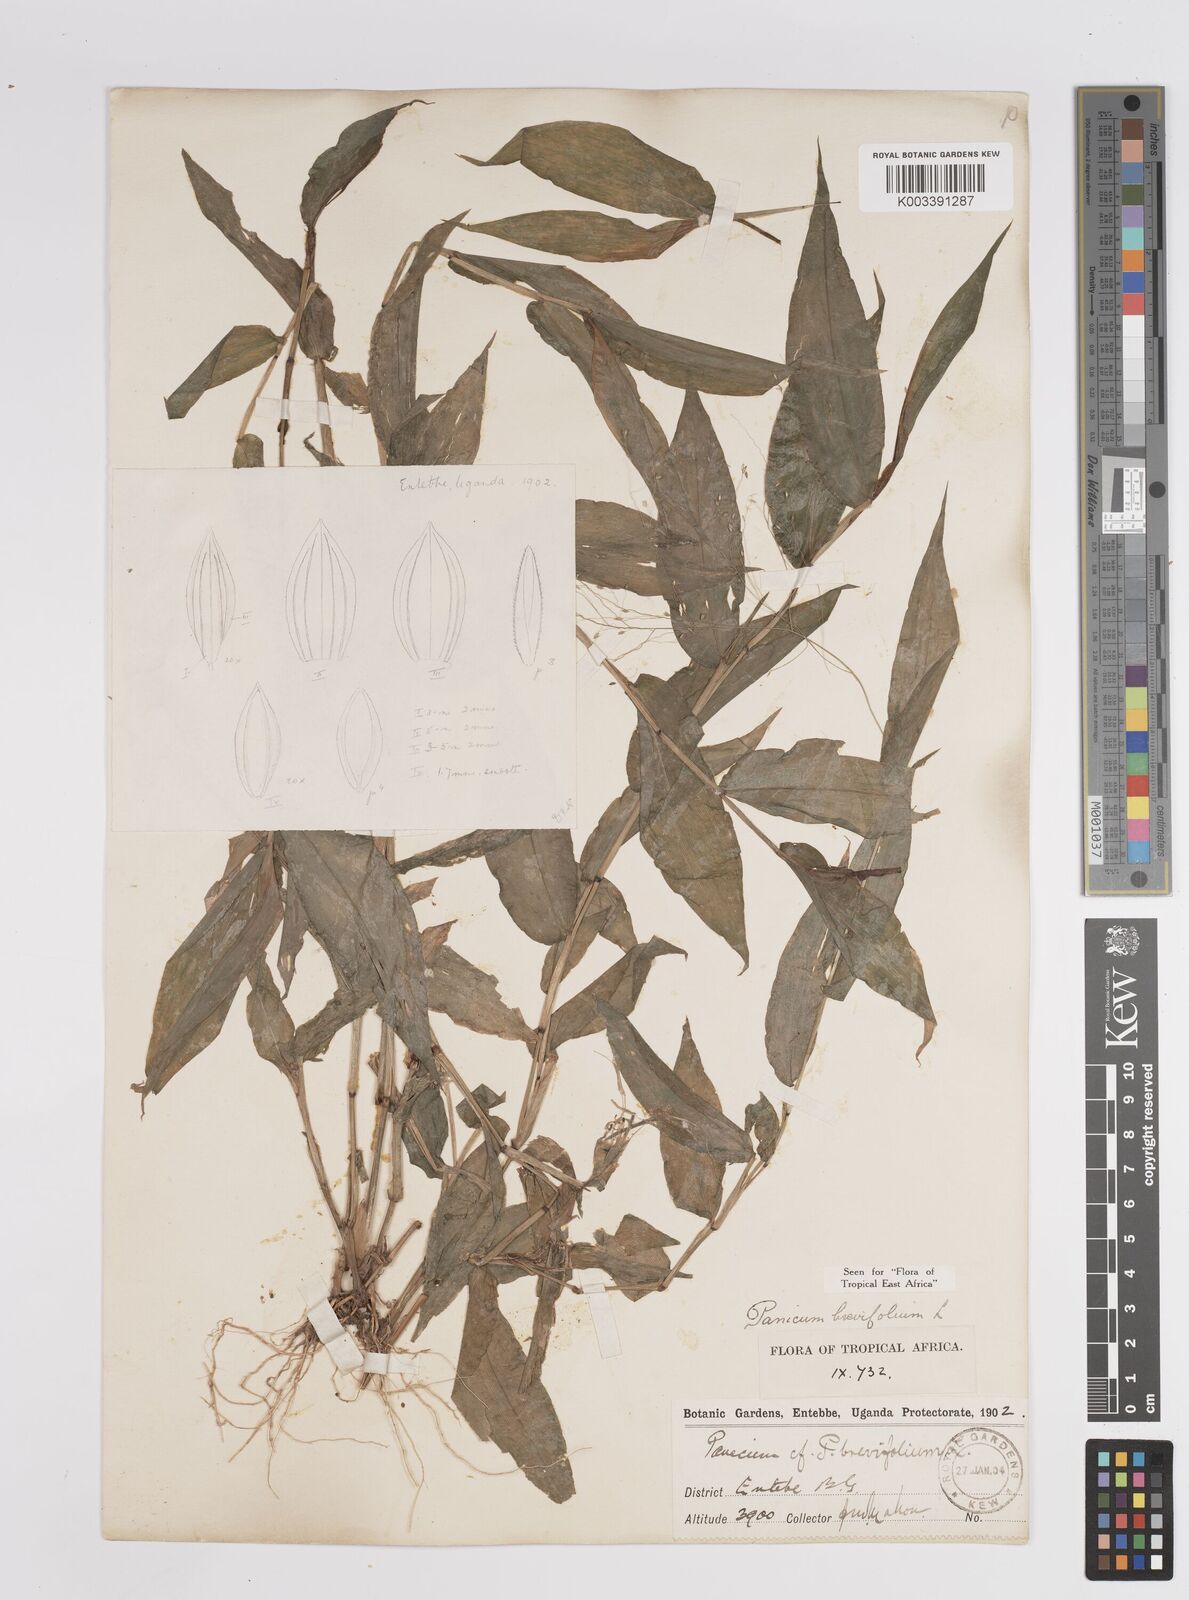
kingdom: Plantae
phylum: Tracheophyta
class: Liliopsida
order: Poales
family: Poaceae
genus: Panicum
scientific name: Panicum brevifolium
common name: Shortleaf panic grass
